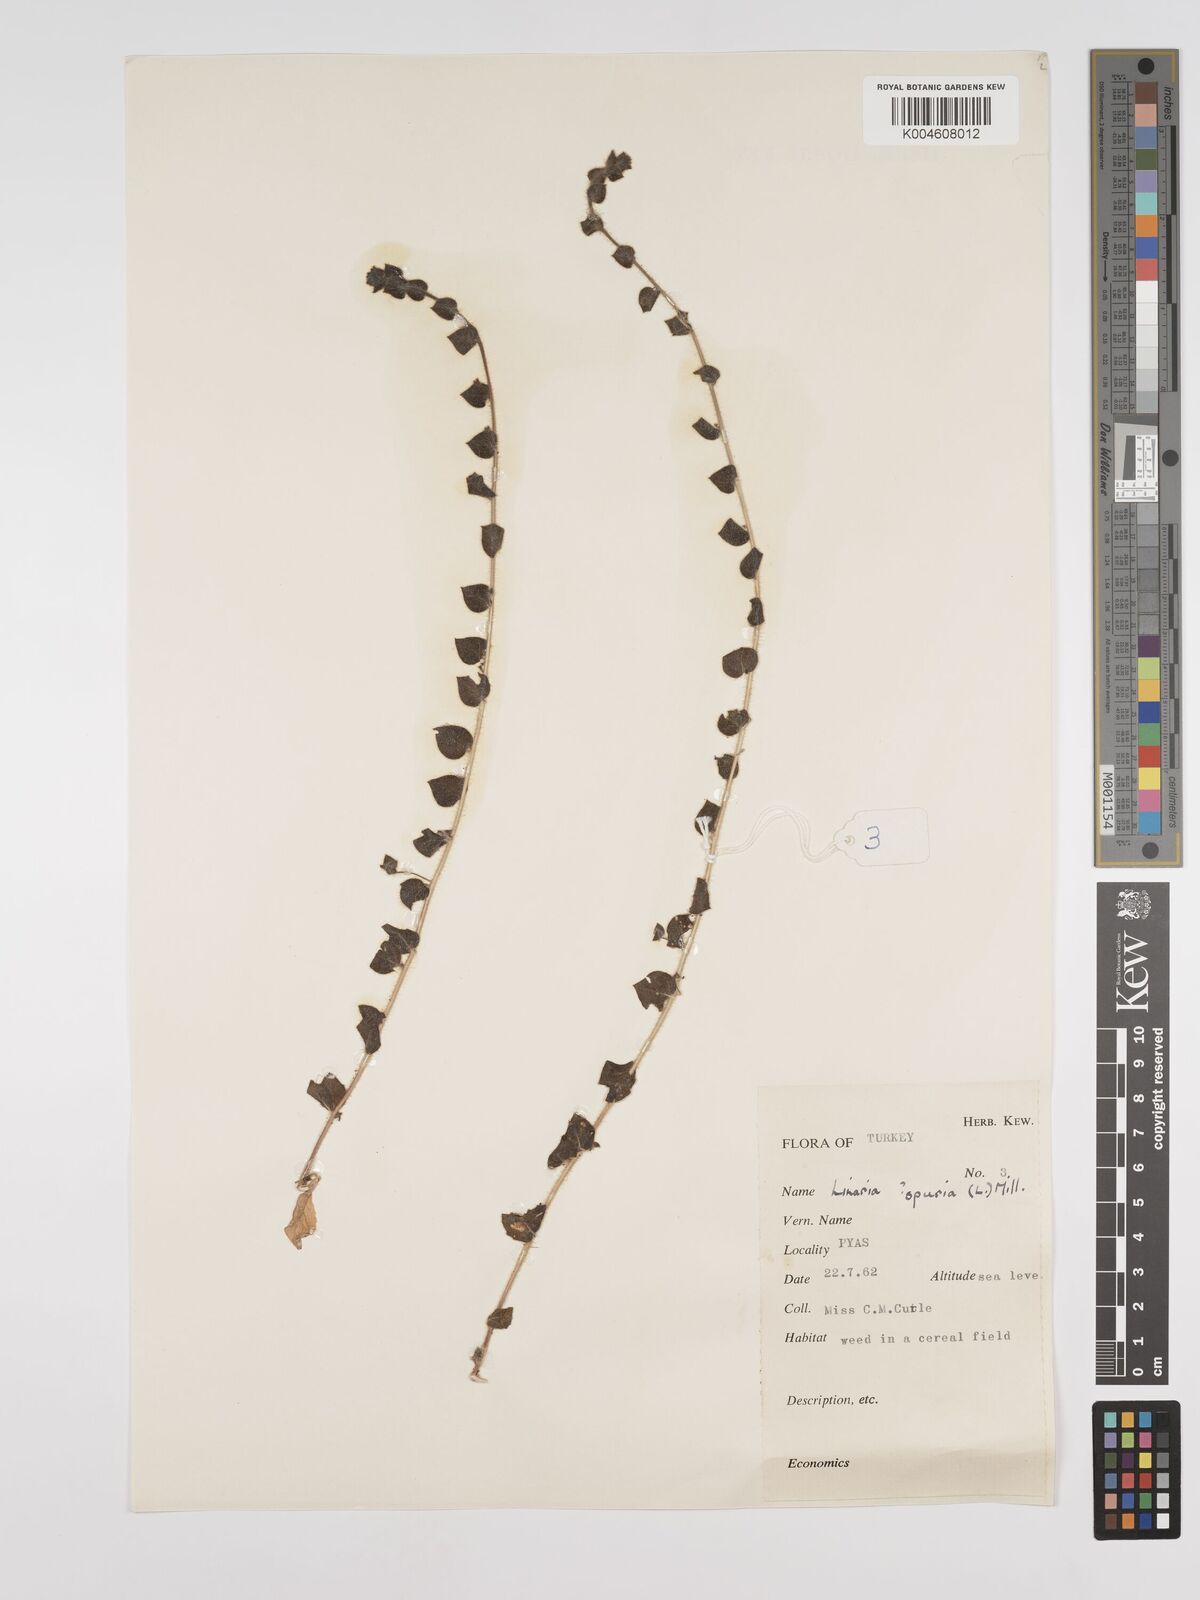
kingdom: Plantae
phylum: Tracheophyta
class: Magnoliopsida
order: Lamiales
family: Plantaginaceae
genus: Kickxia
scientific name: Kickxia spuria
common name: Round-leaved fluellen
